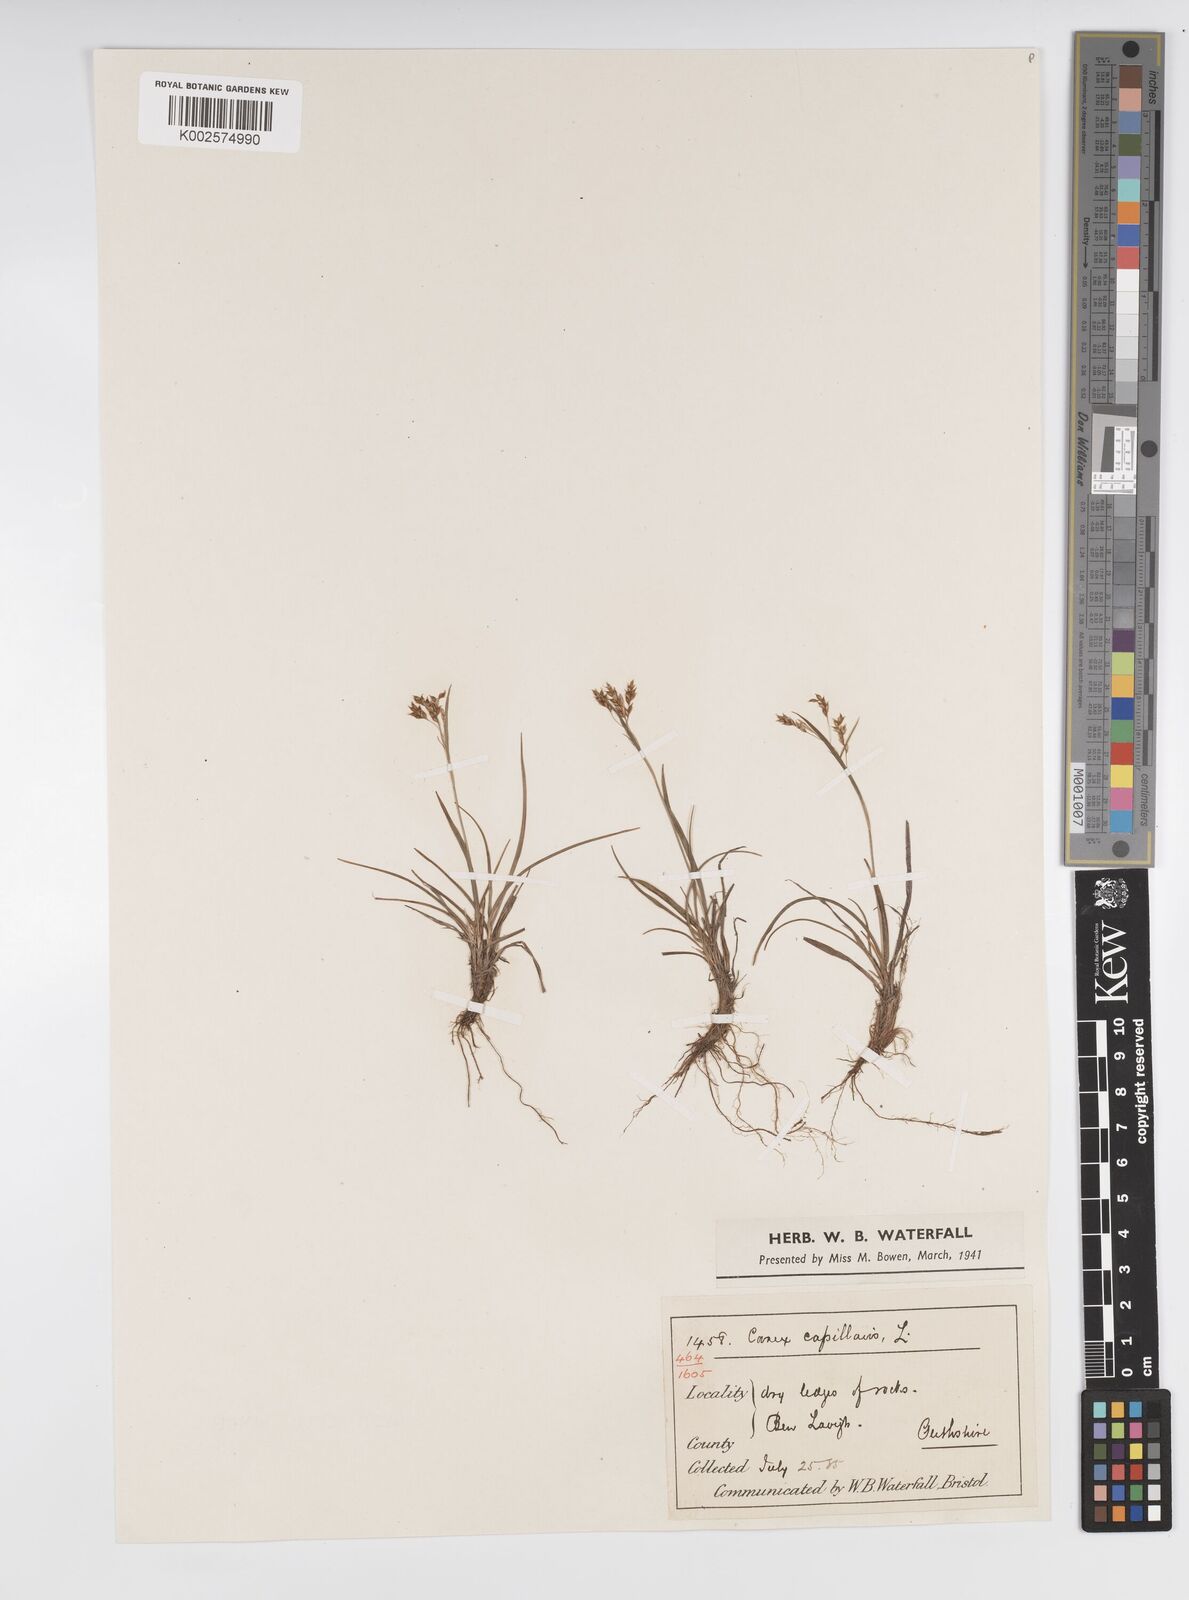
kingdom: Plantae
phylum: Tracheophyta
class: Liliopsida
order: Poales
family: Cyperaceae
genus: Carex
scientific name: Carex capillaris
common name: Hair sedge
